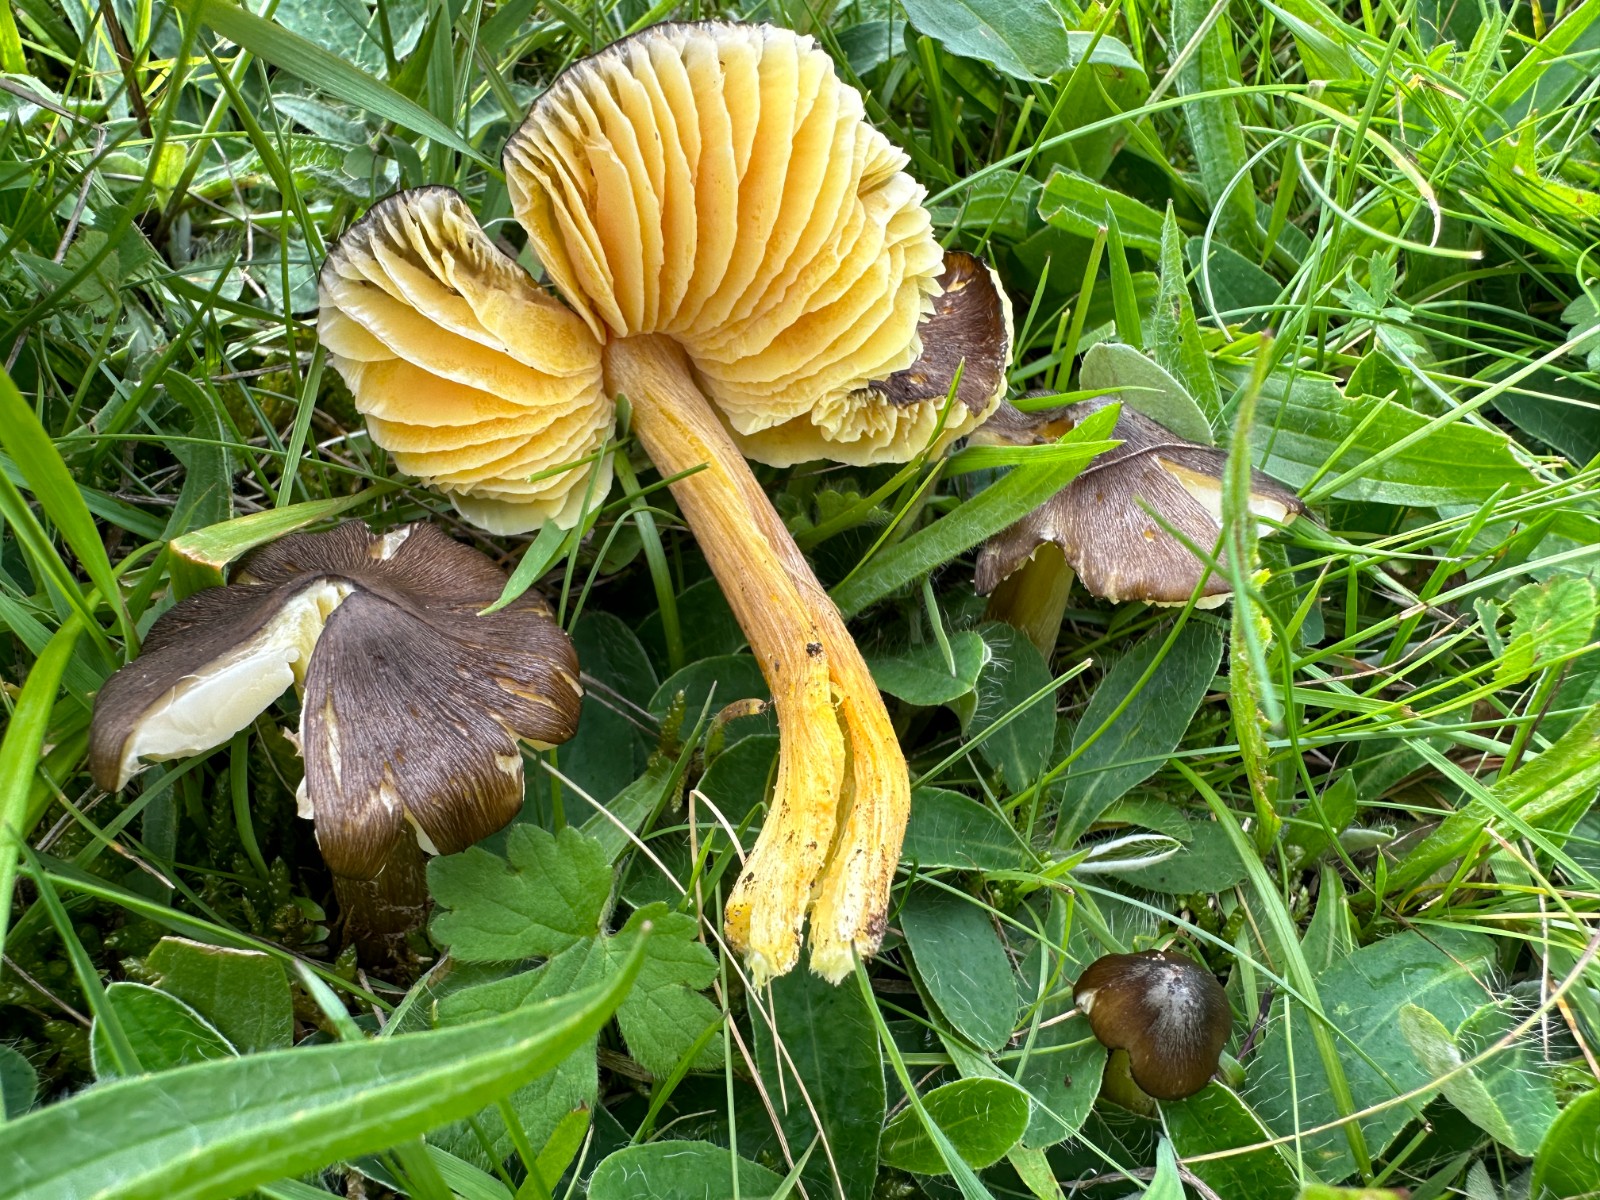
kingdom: Fungi
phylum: Basidiomycota
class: Agaricomycetes
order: Agaricales
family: Hygrophoraceae
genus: Hygrocybe
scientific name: Hygrocybe spadicea
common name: daddelbrun vokshat
